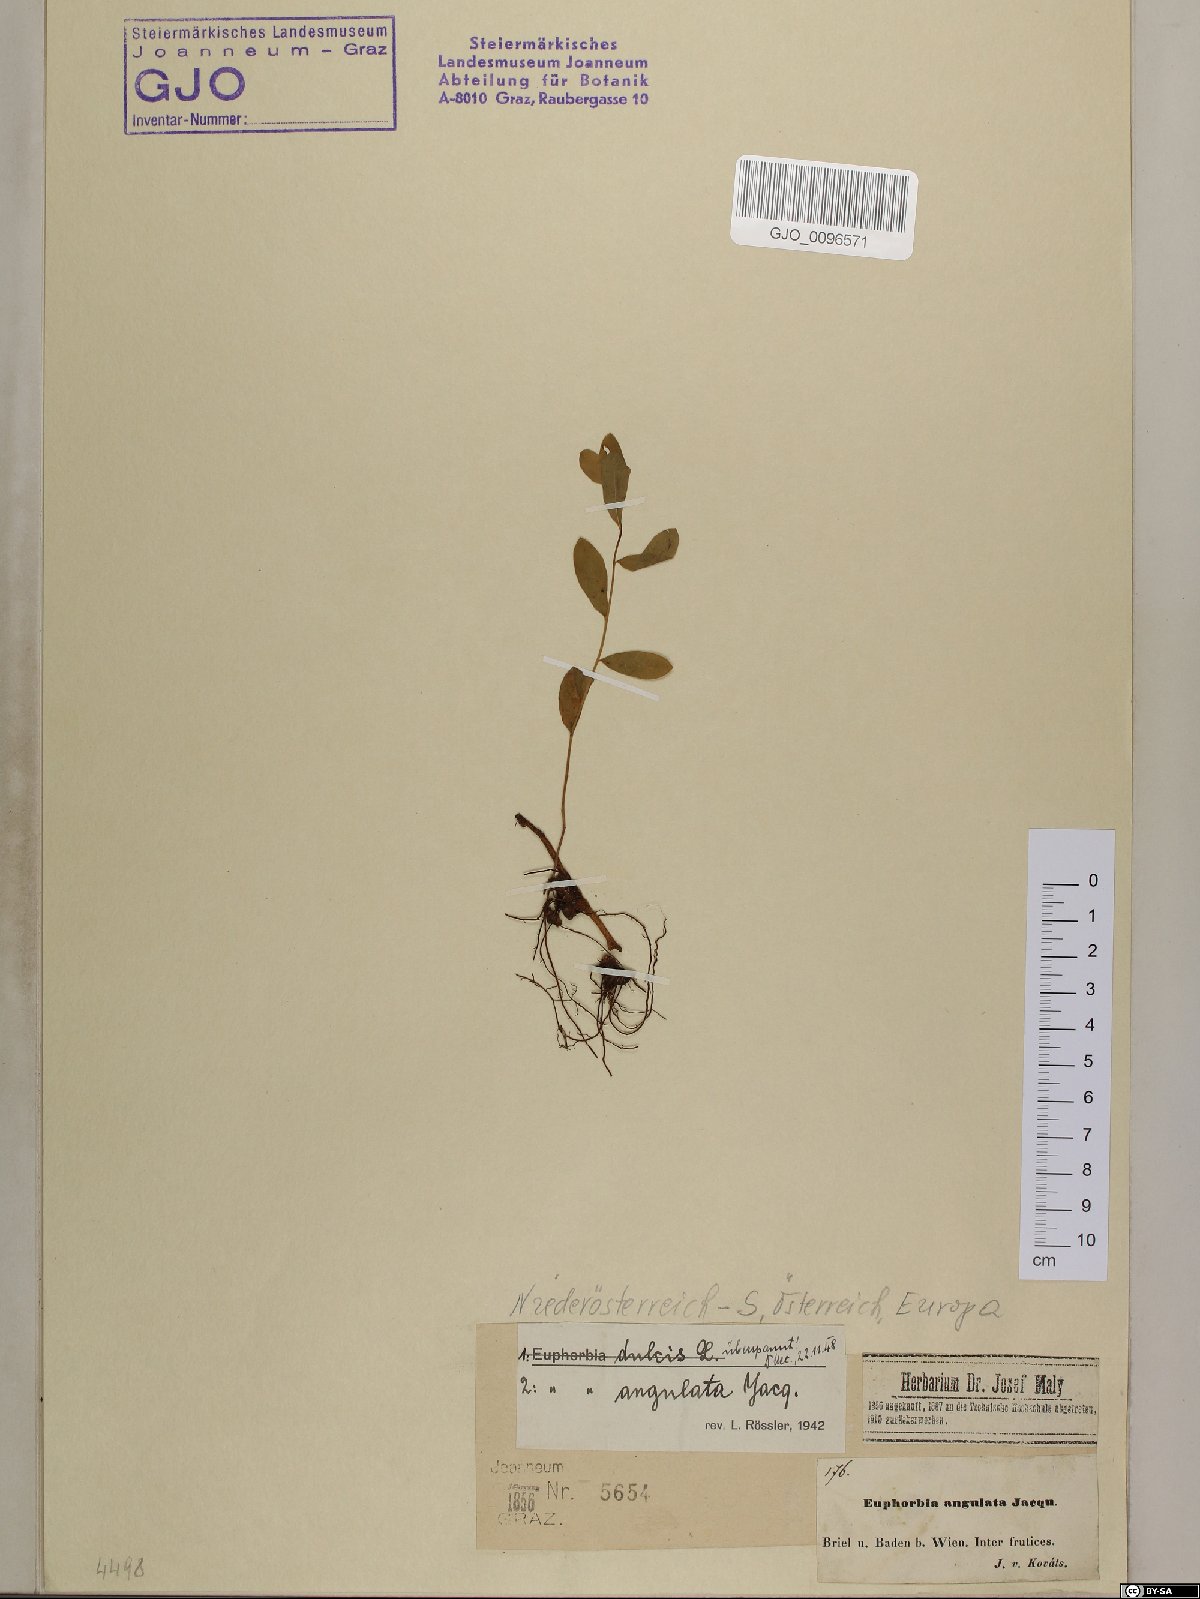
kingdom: Plantae
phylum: Tracheophyta
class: Magnoliopsida
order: Malpighiales
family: Euphorbiaceae
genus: Euphorbia
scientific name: Euphorbia angulata
